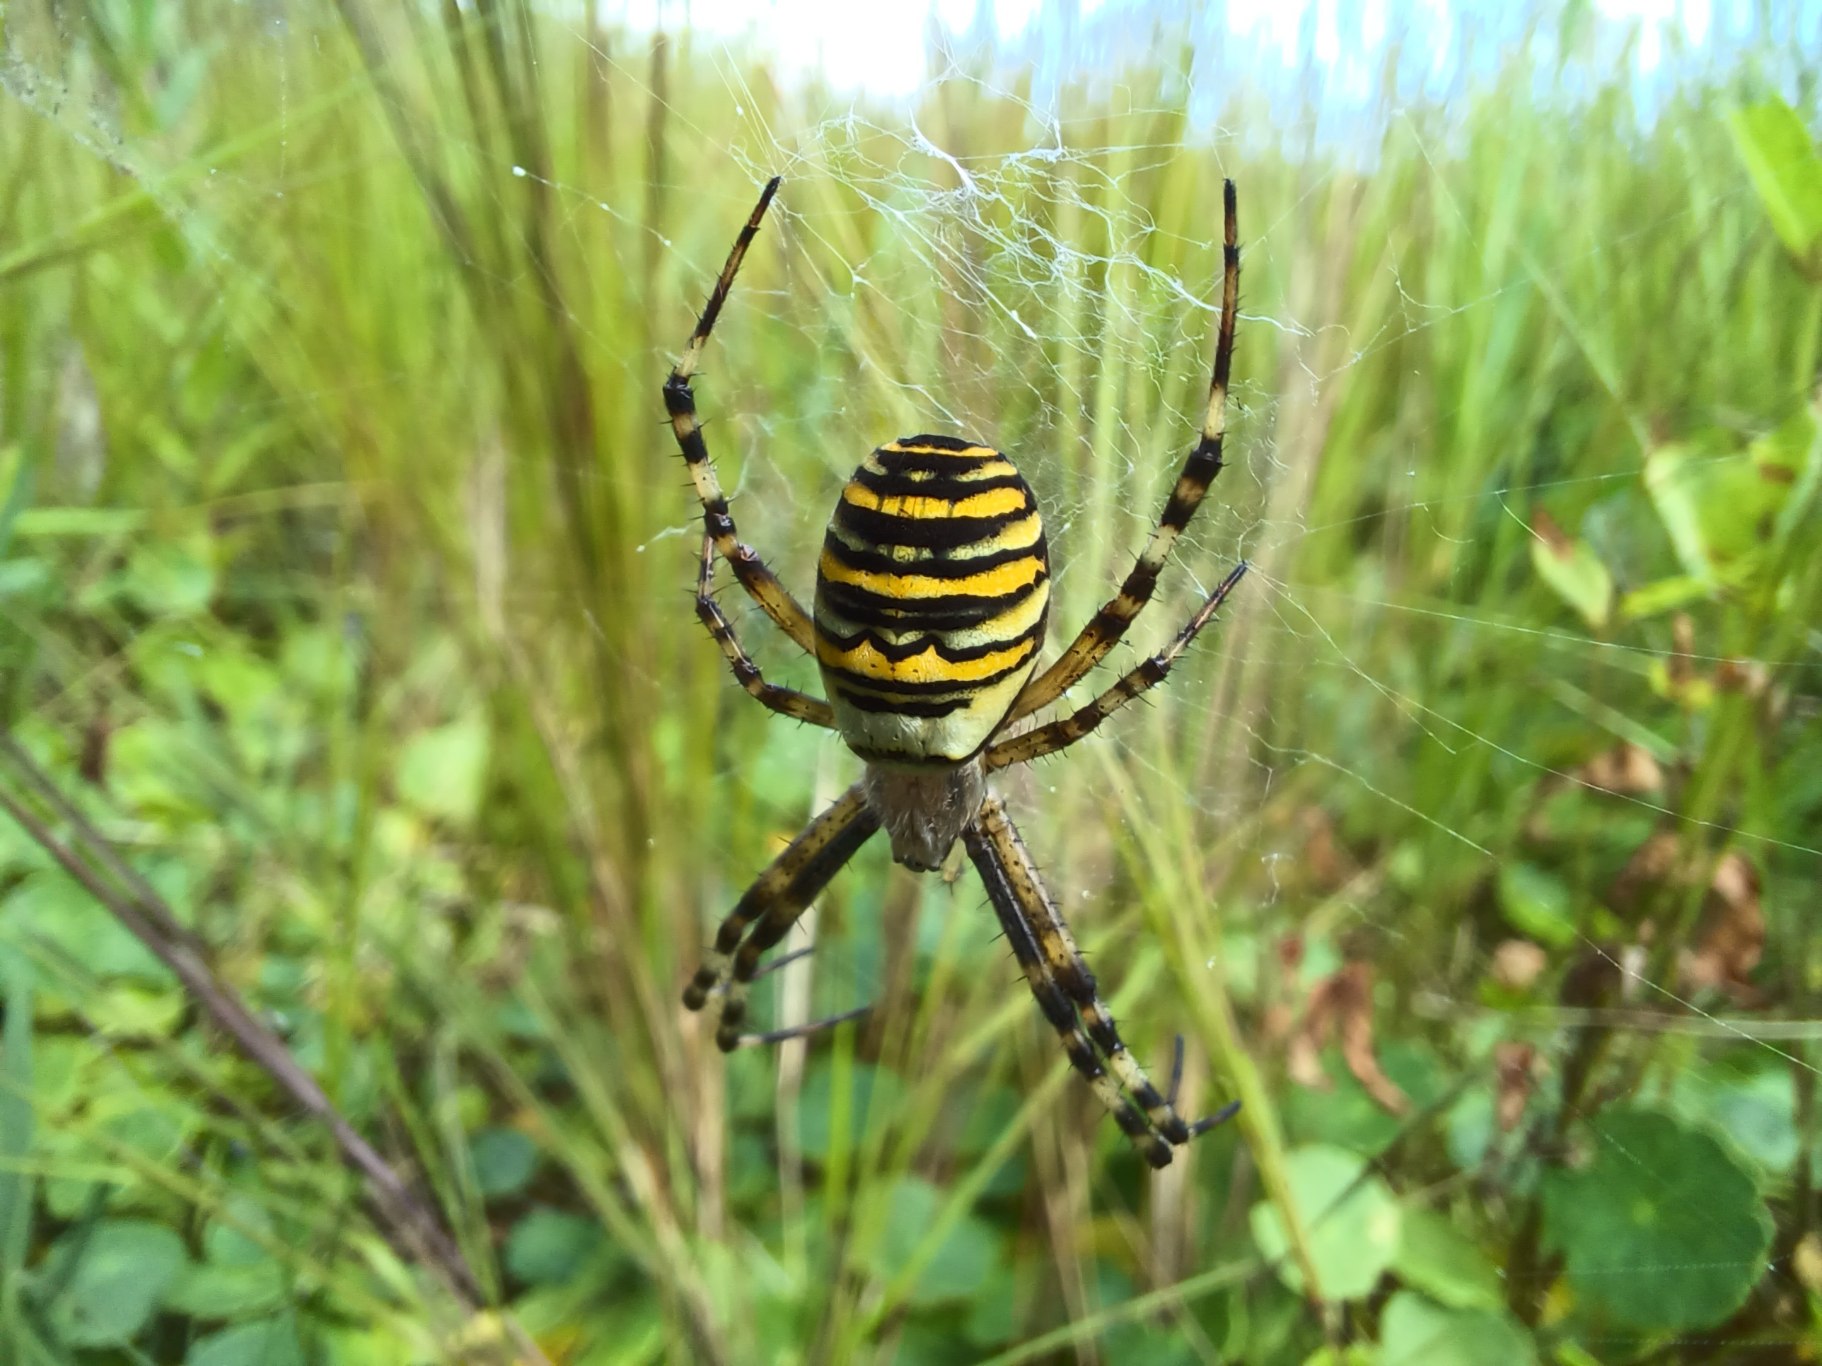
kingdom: Animalia
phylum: Arthropoda
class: Arachnida
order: Araneae
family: Araneidae
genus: Argiope
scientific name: Argiope bruennichi
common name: Hvepseedderkop
